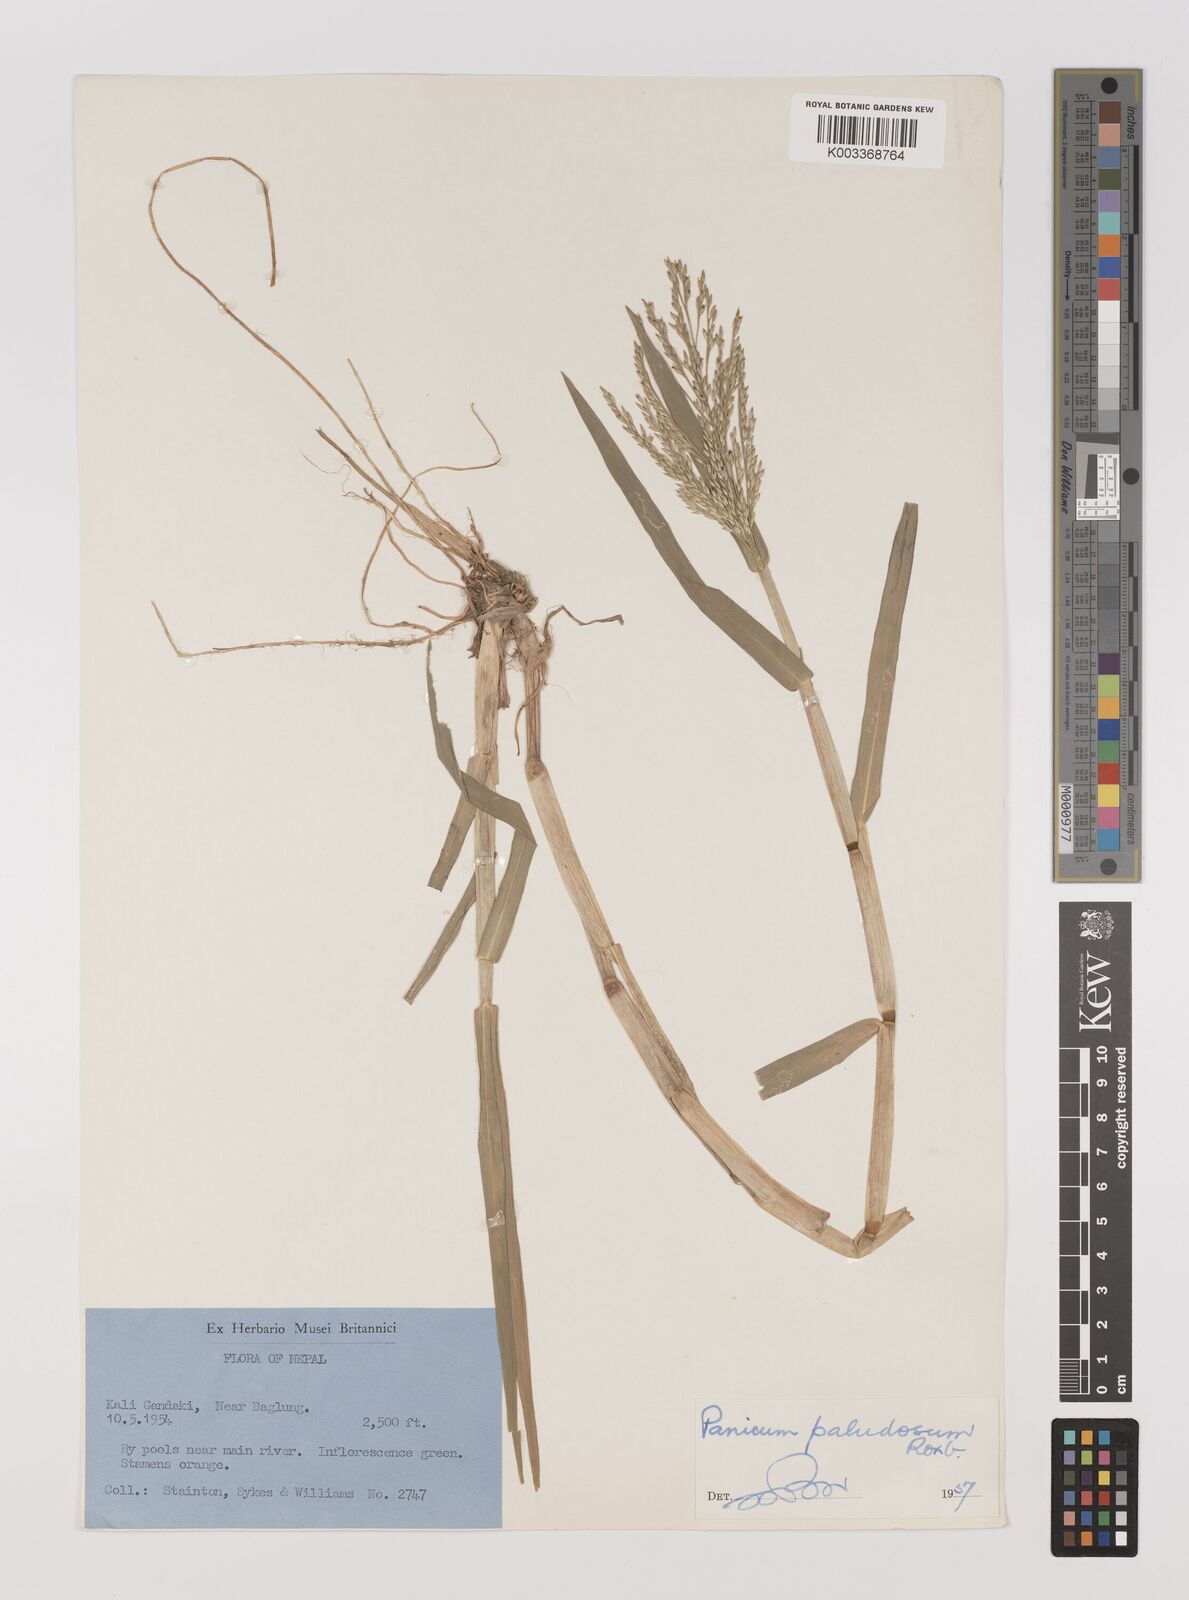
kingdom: Plantae
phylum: Tracheophyta
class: Liliopsida
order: Poales
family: Poaceae
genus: Louisiella
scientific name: Louisiella paludosa
